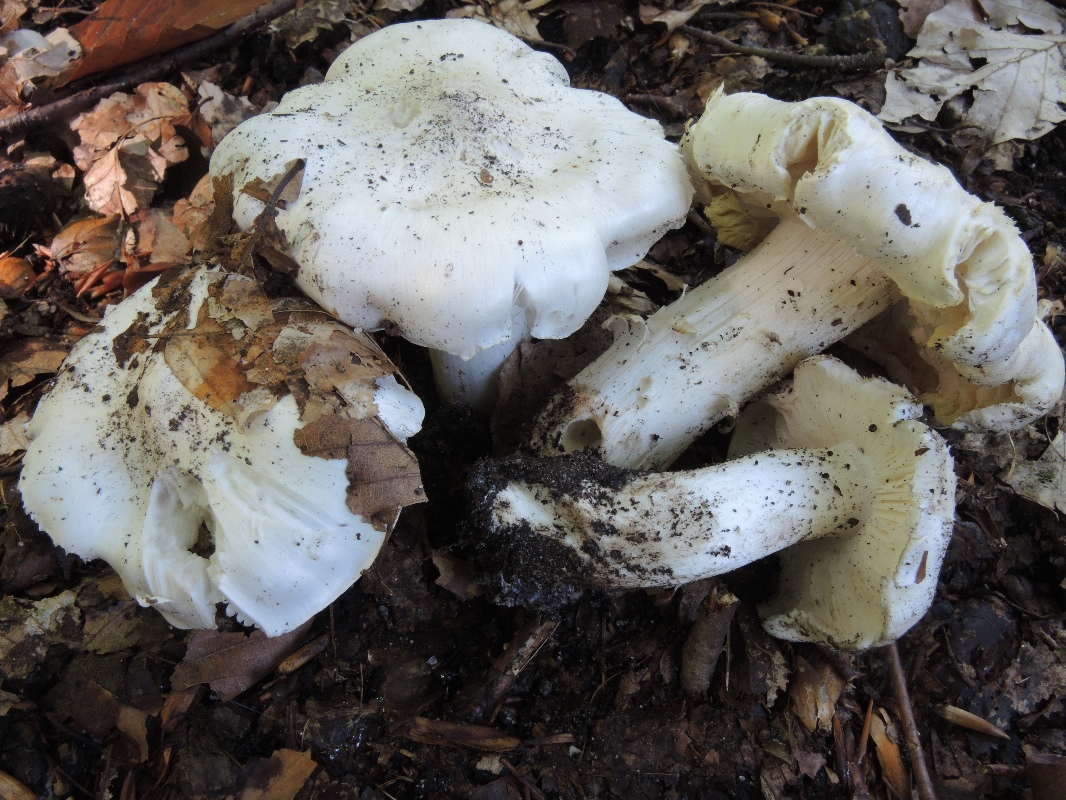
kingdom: Fungi
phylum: Basidiomycota
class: Agaricomycetes
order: Agaricales
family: Tricholomataceae
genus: Tricholoma
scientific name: Tricholoma columbetta
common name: silke-ridderhat
